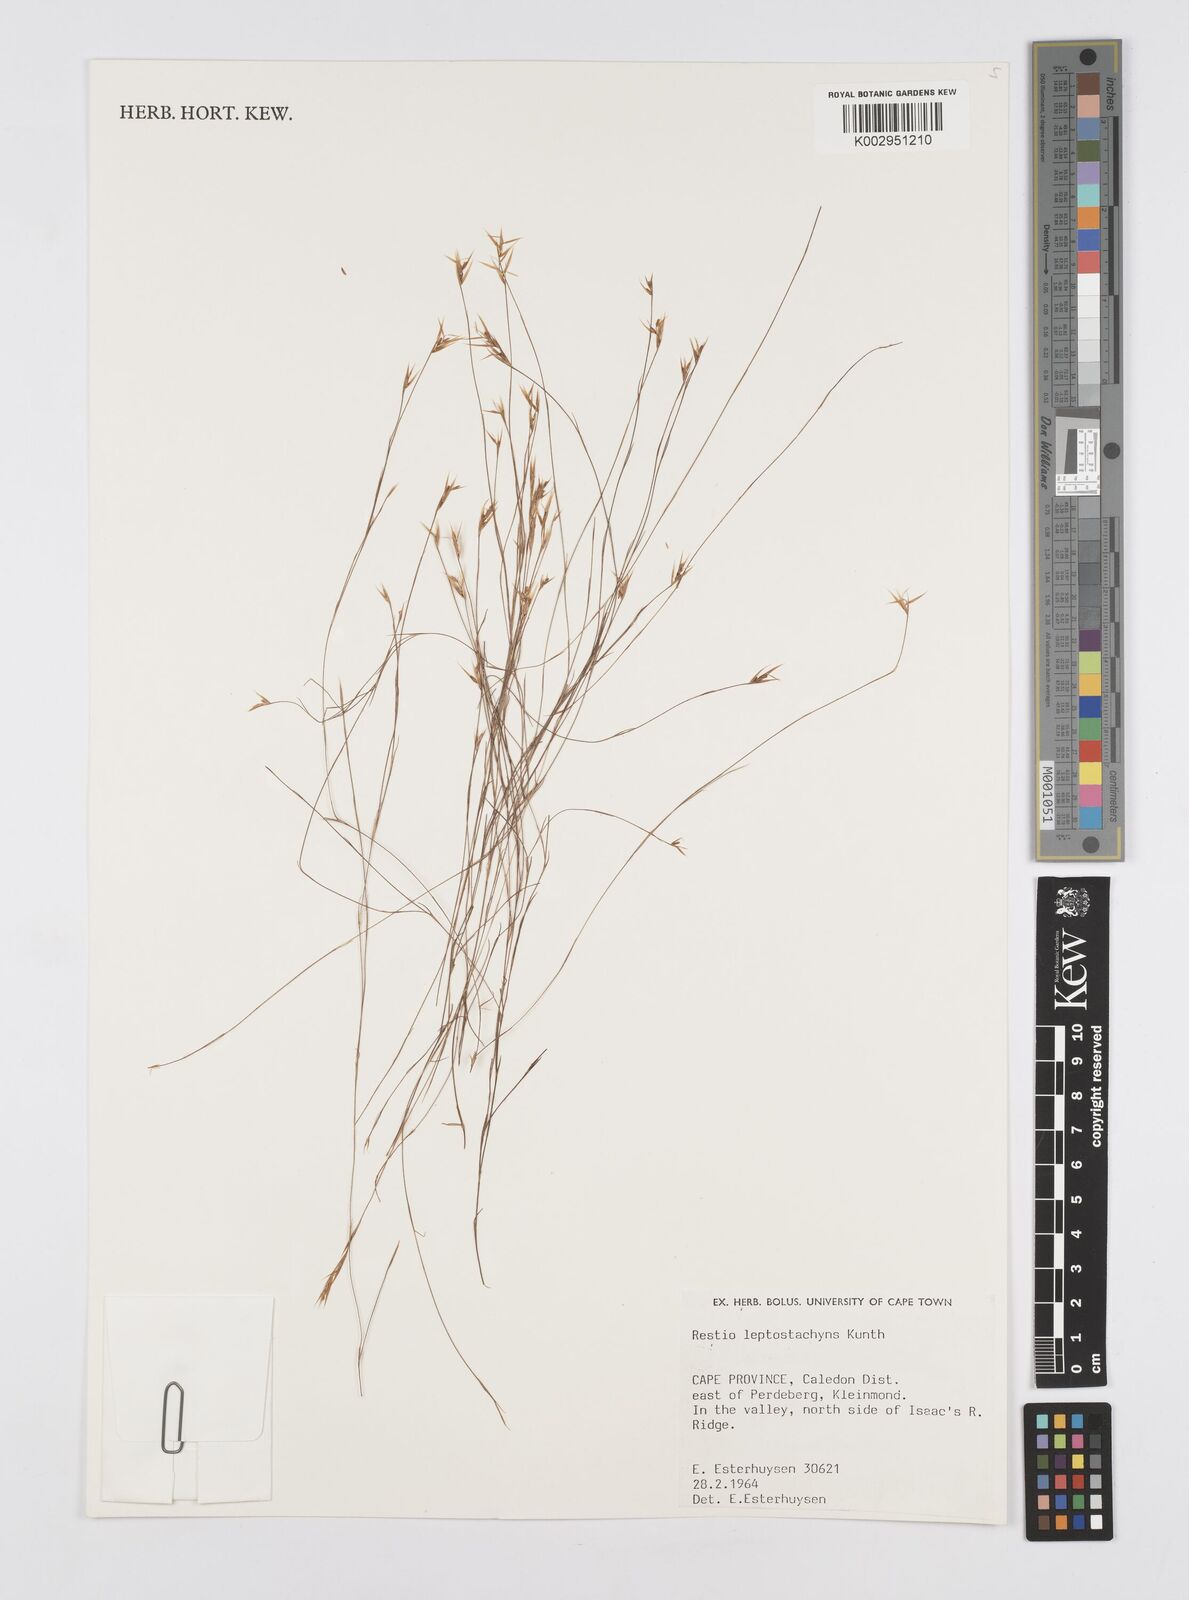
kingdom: Plantae
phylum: Tracheophyta
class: Liliopsida
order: Poales
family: Restionaceae
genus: Restio
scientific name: Restio leptostachyus
